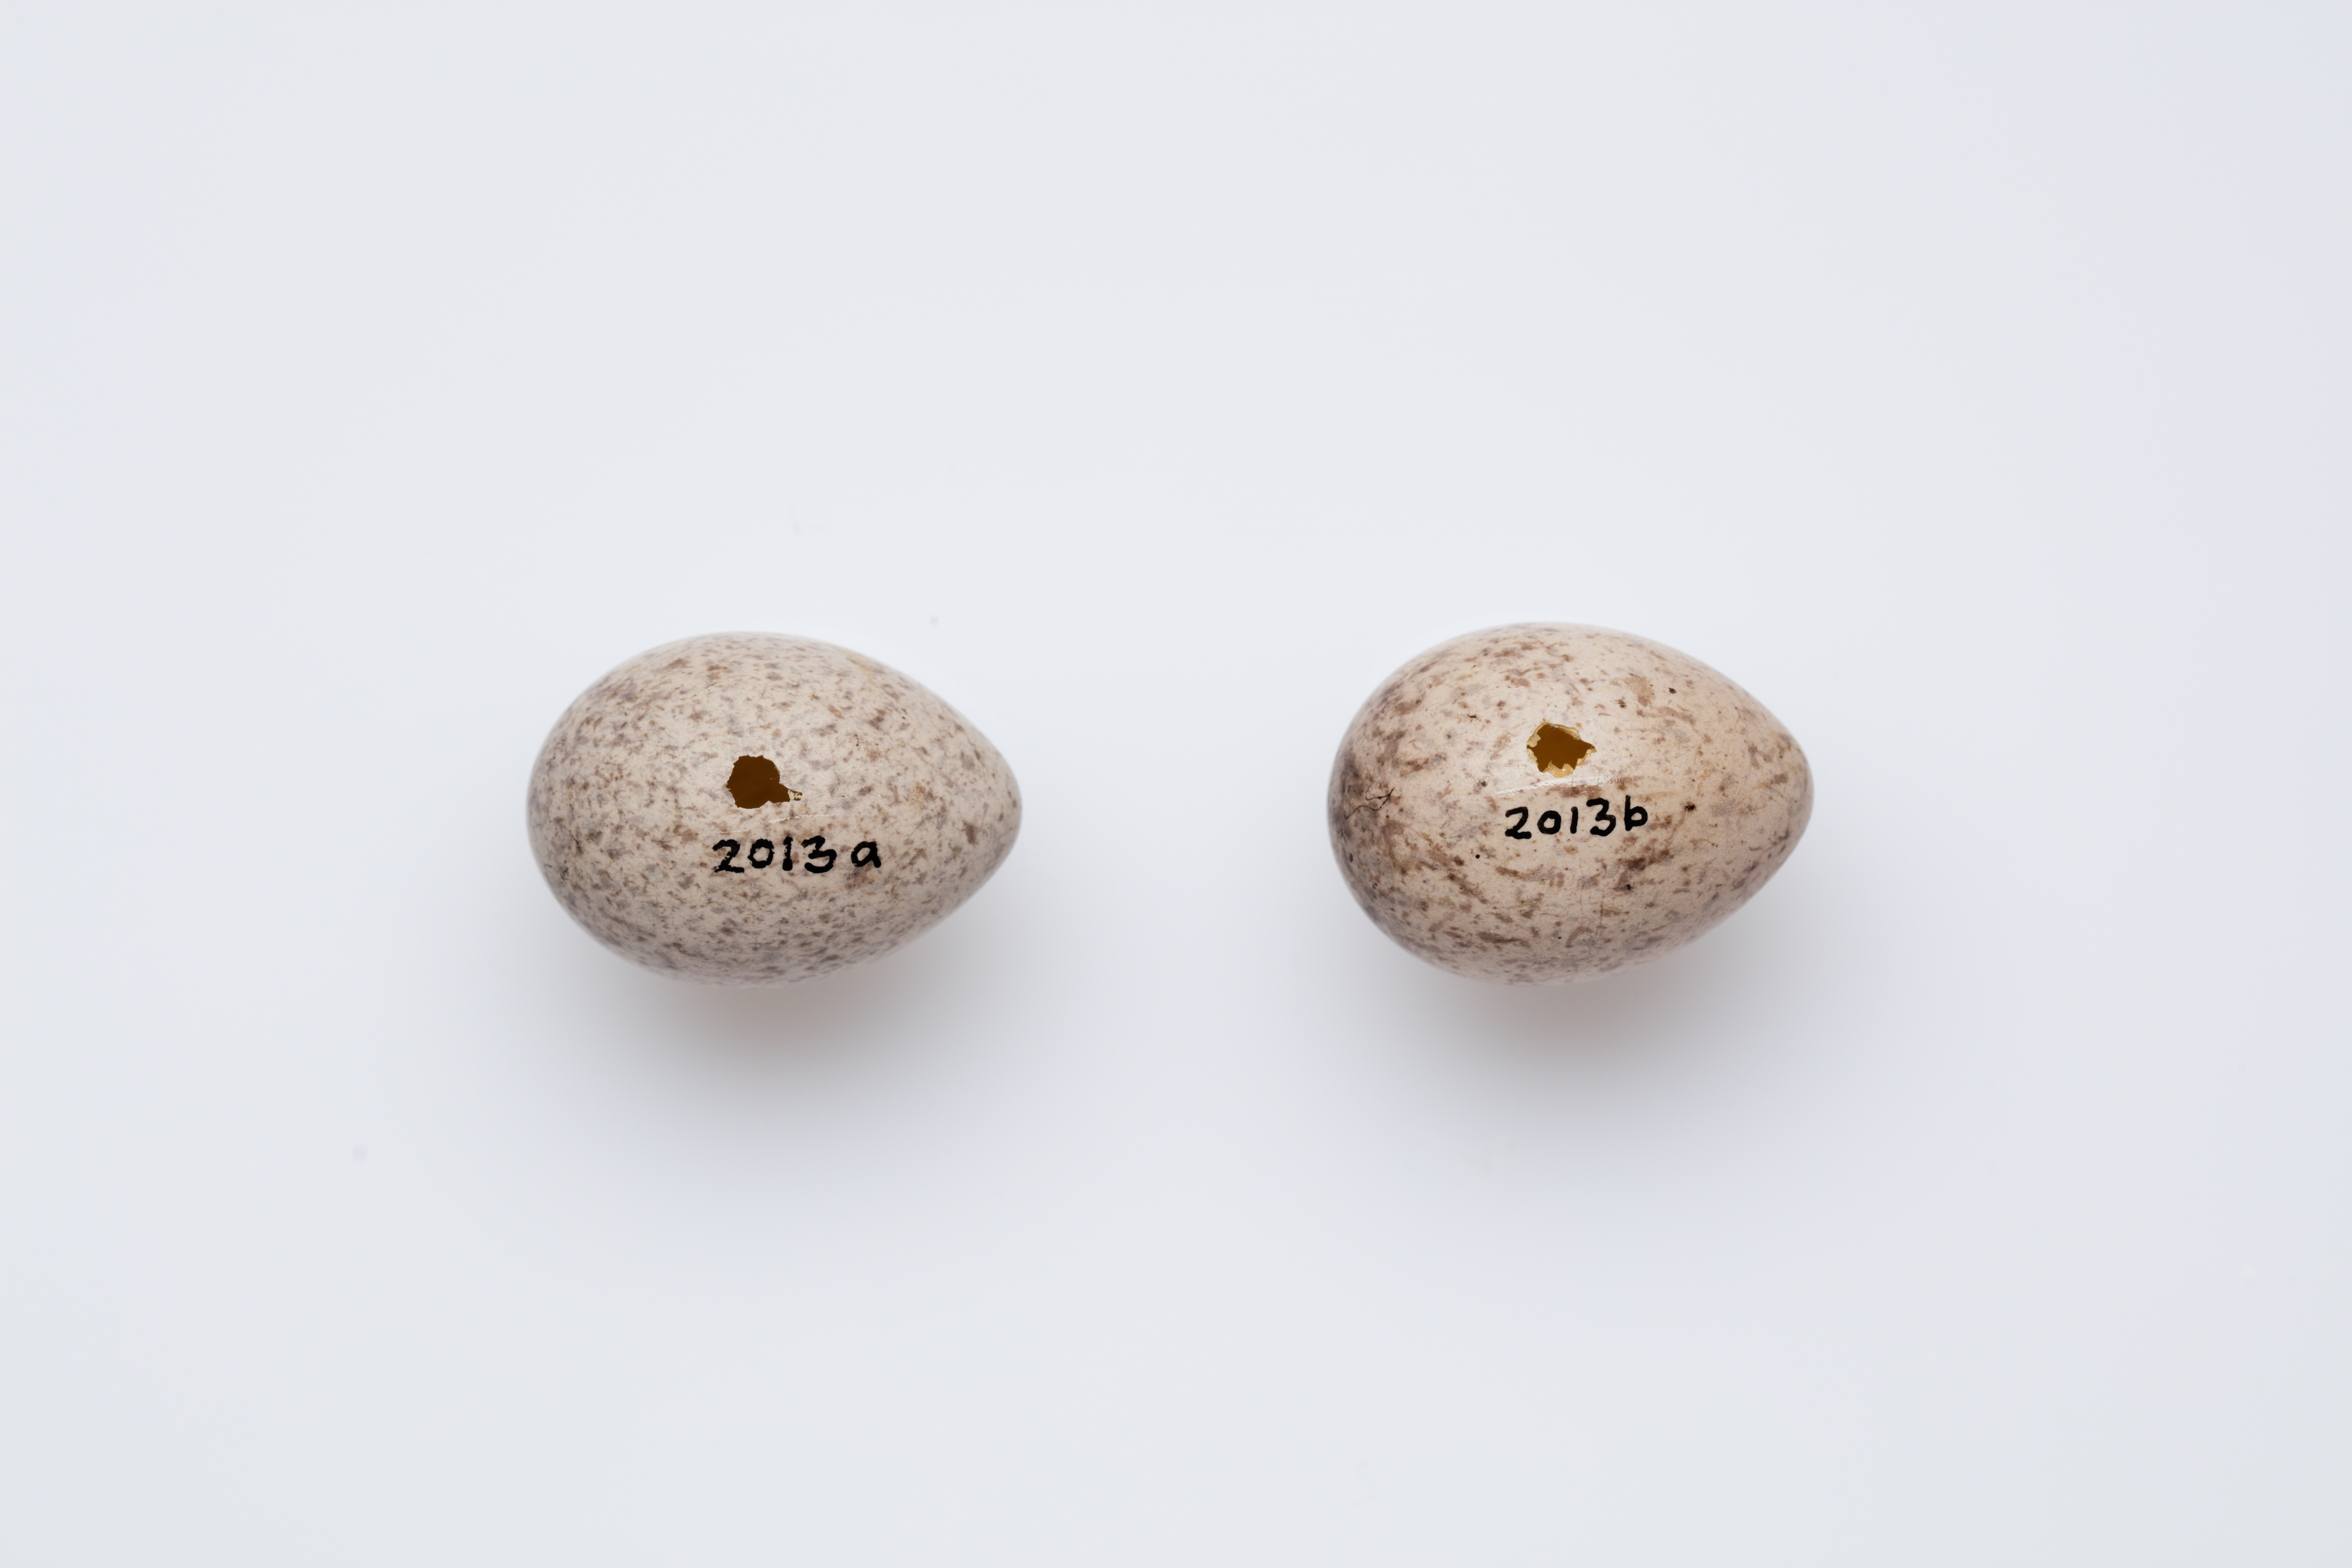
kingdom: Animalia
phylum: Chordata
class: Aves
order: Passeriformes
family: Callaeatidae
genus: Philesturnus
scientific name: Philesturnus carunculatus
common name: South island saddleback
